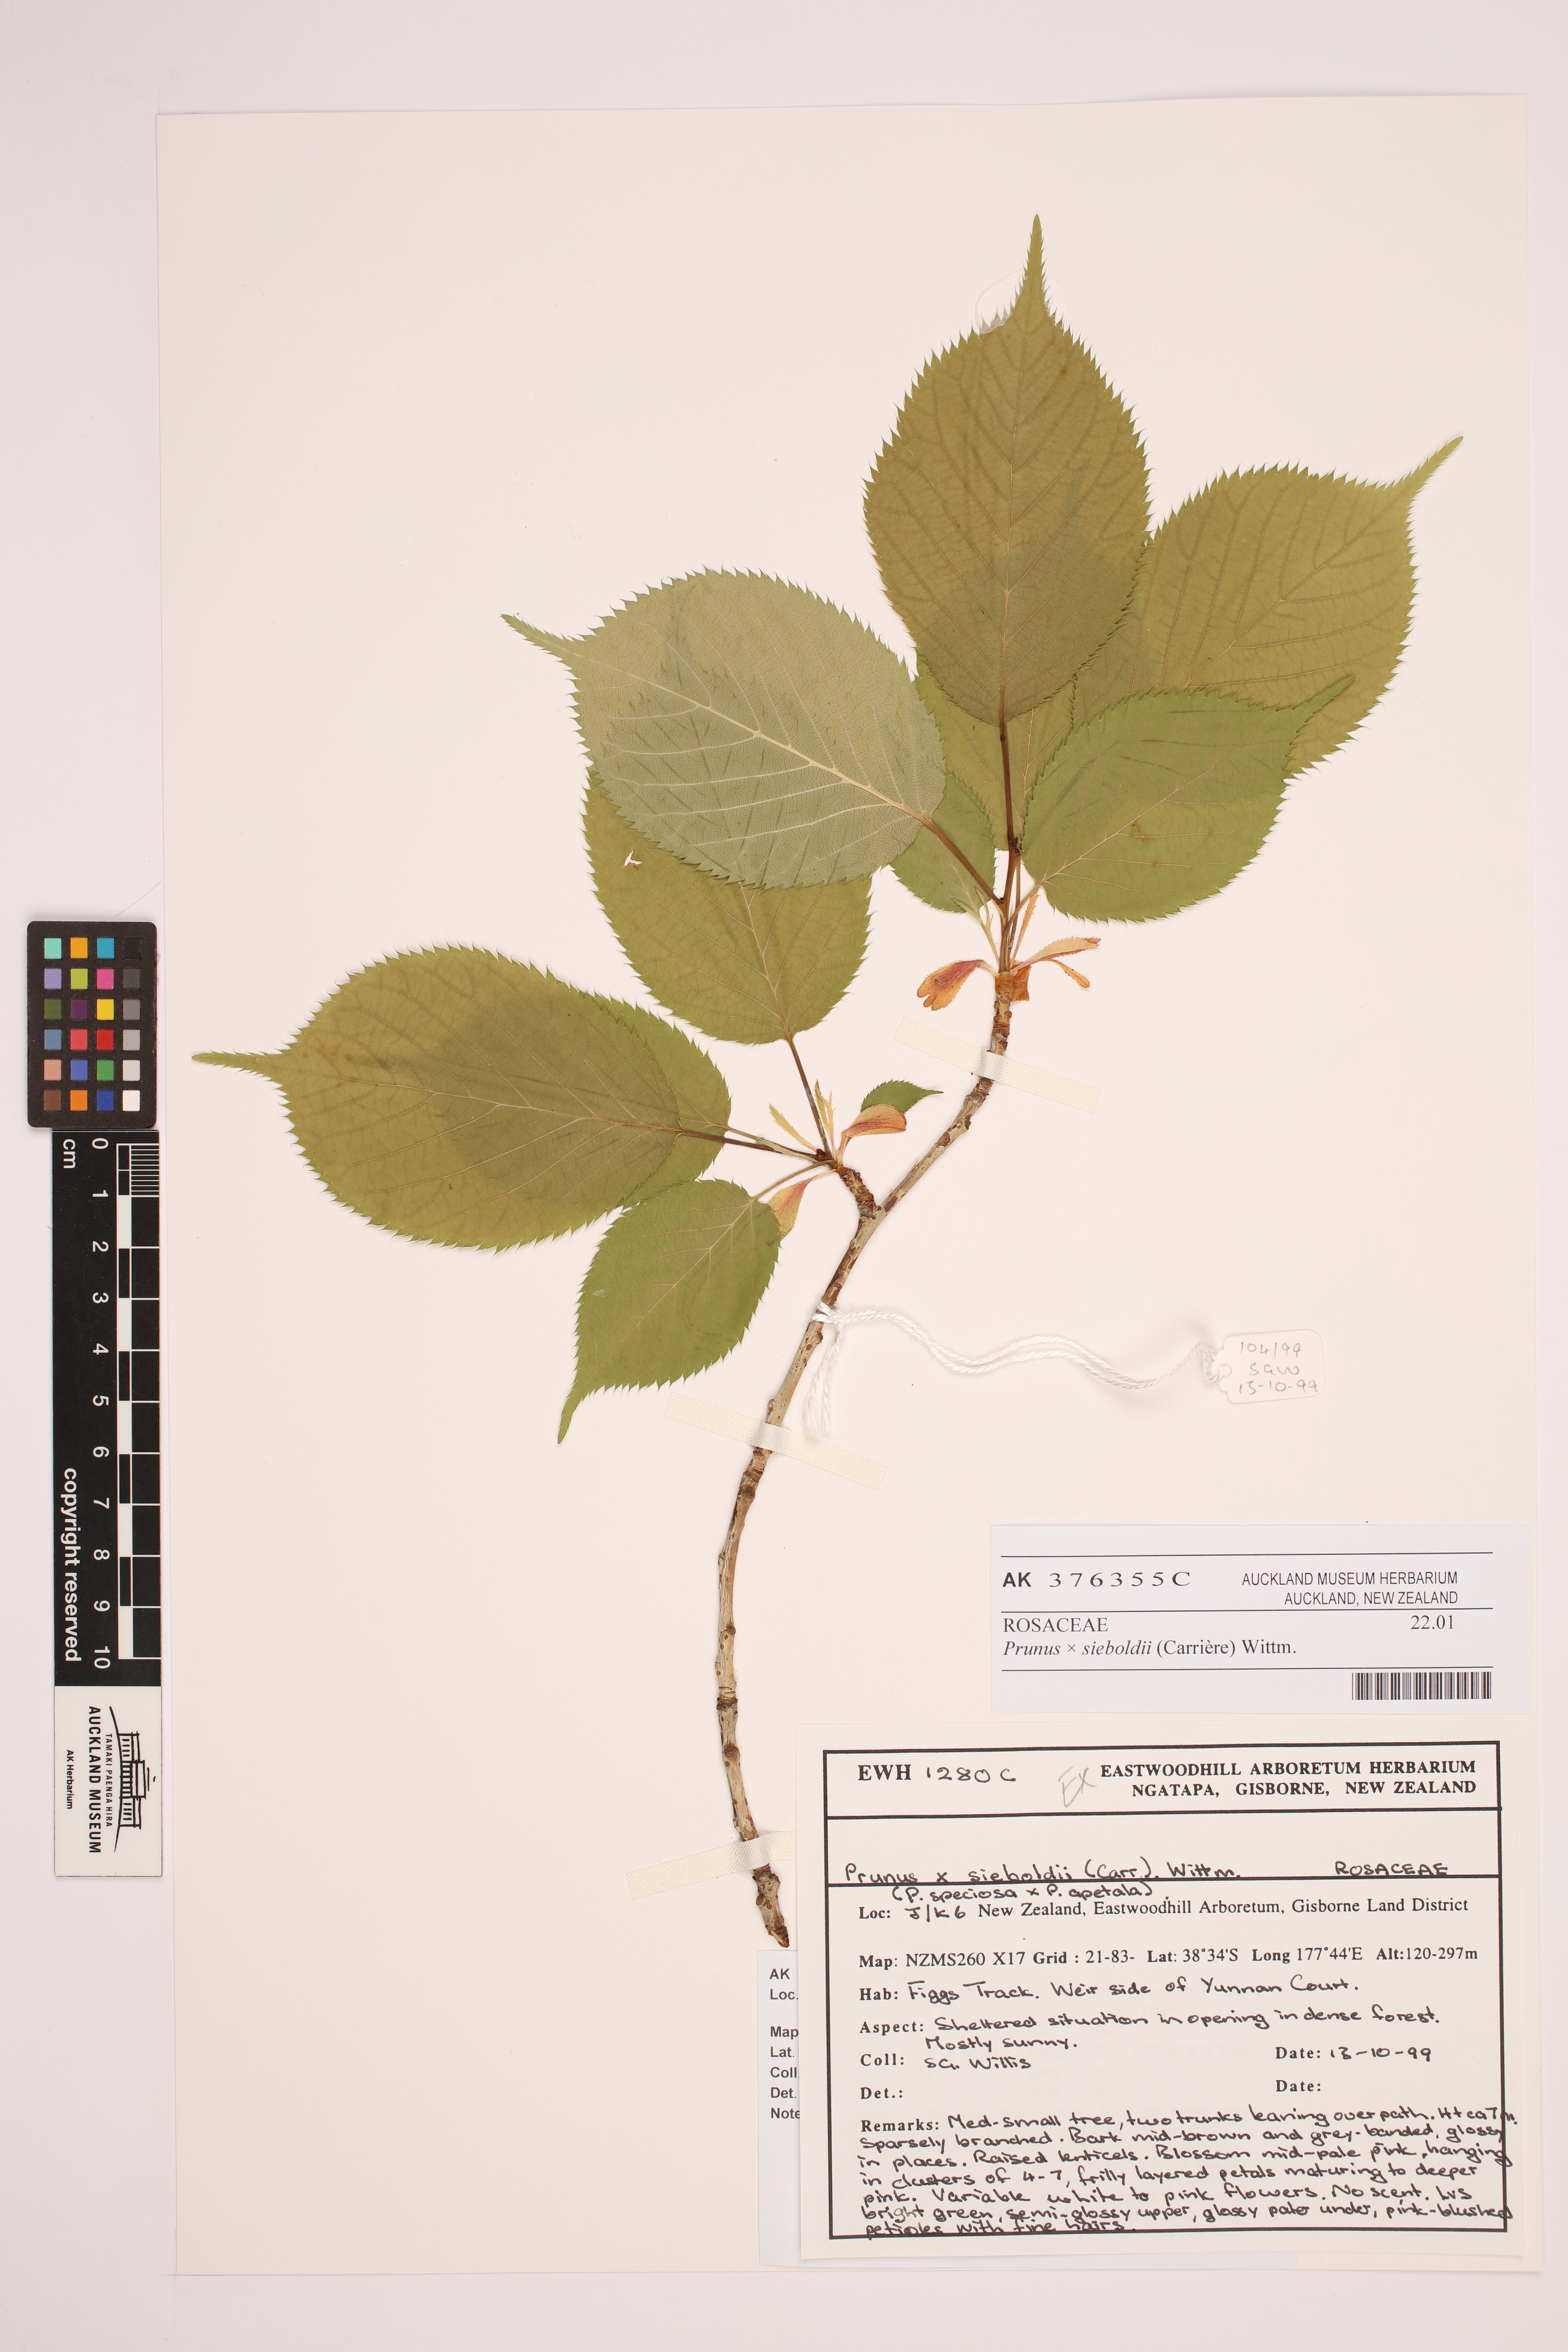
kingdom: Plantae
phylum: Tracheophyta
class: Magnoliopsida
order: Rosales
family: Rosaceae
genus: Prunus
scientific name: Prunus
